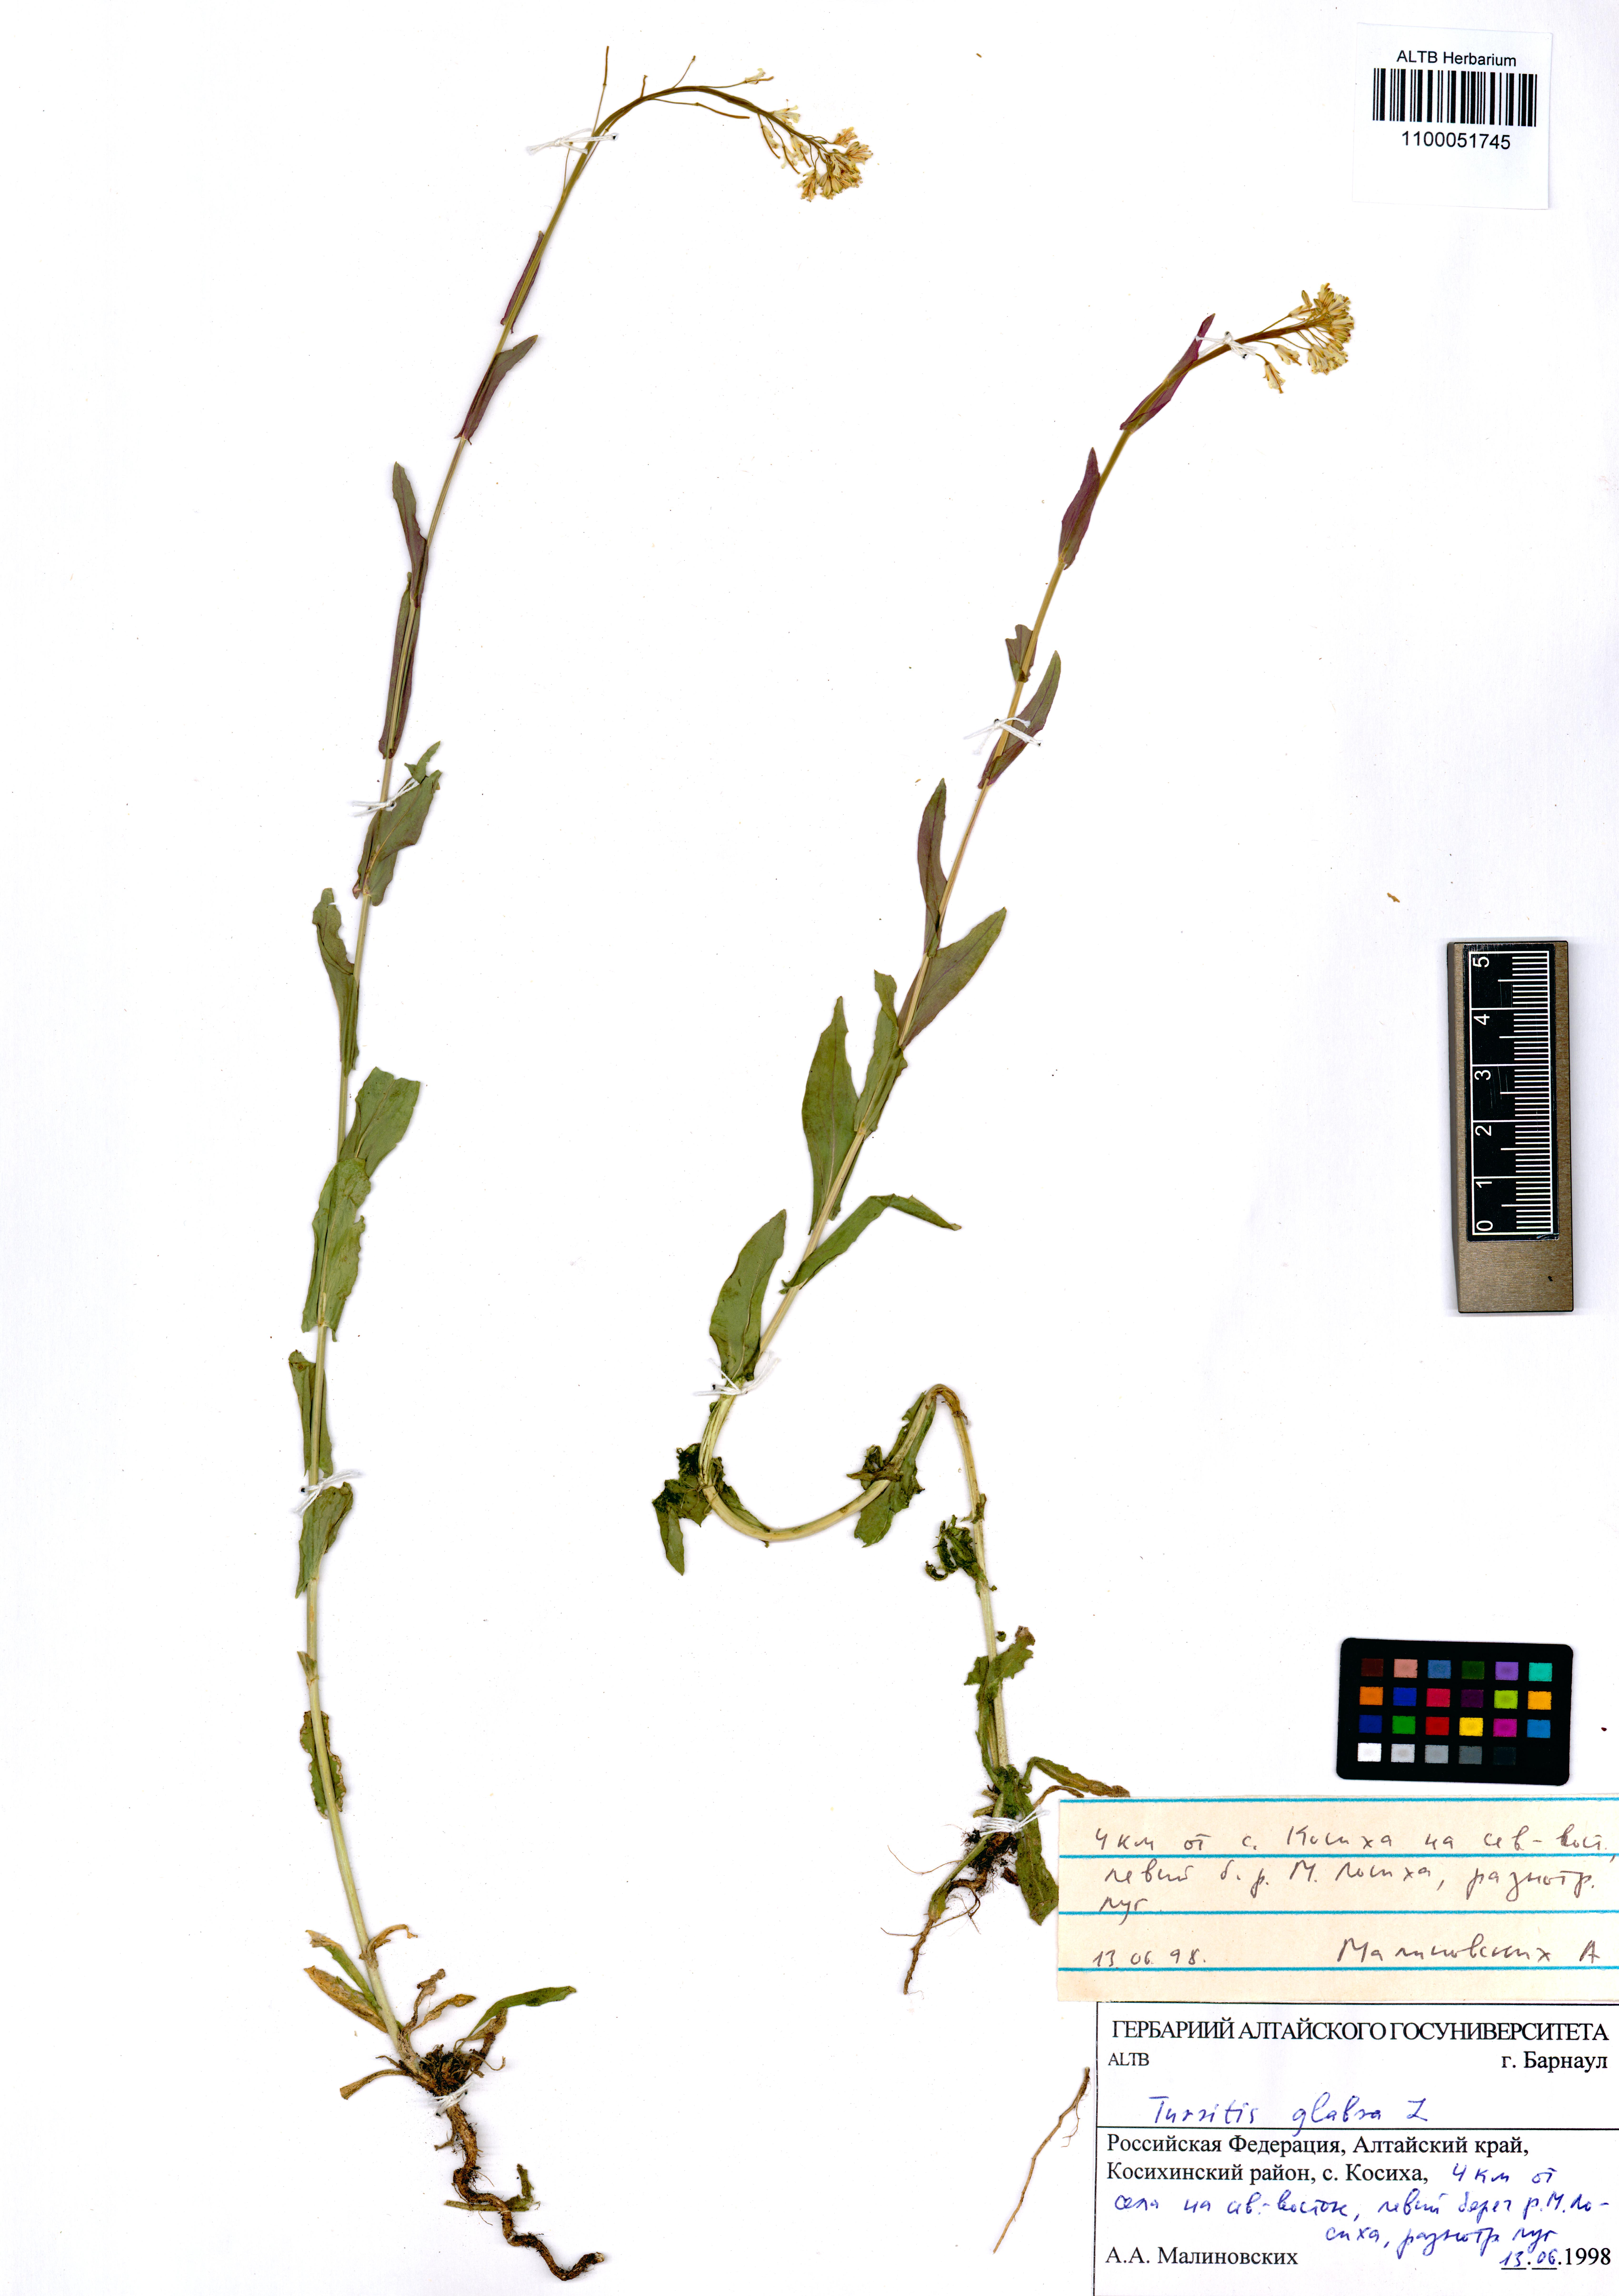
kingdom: Plantae
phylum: Tracheophyta
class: Magnoliopsida
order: Brassicales
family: Brassicaceae
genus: Turritis
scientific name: Turritis glabra
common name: Tower rockcress
